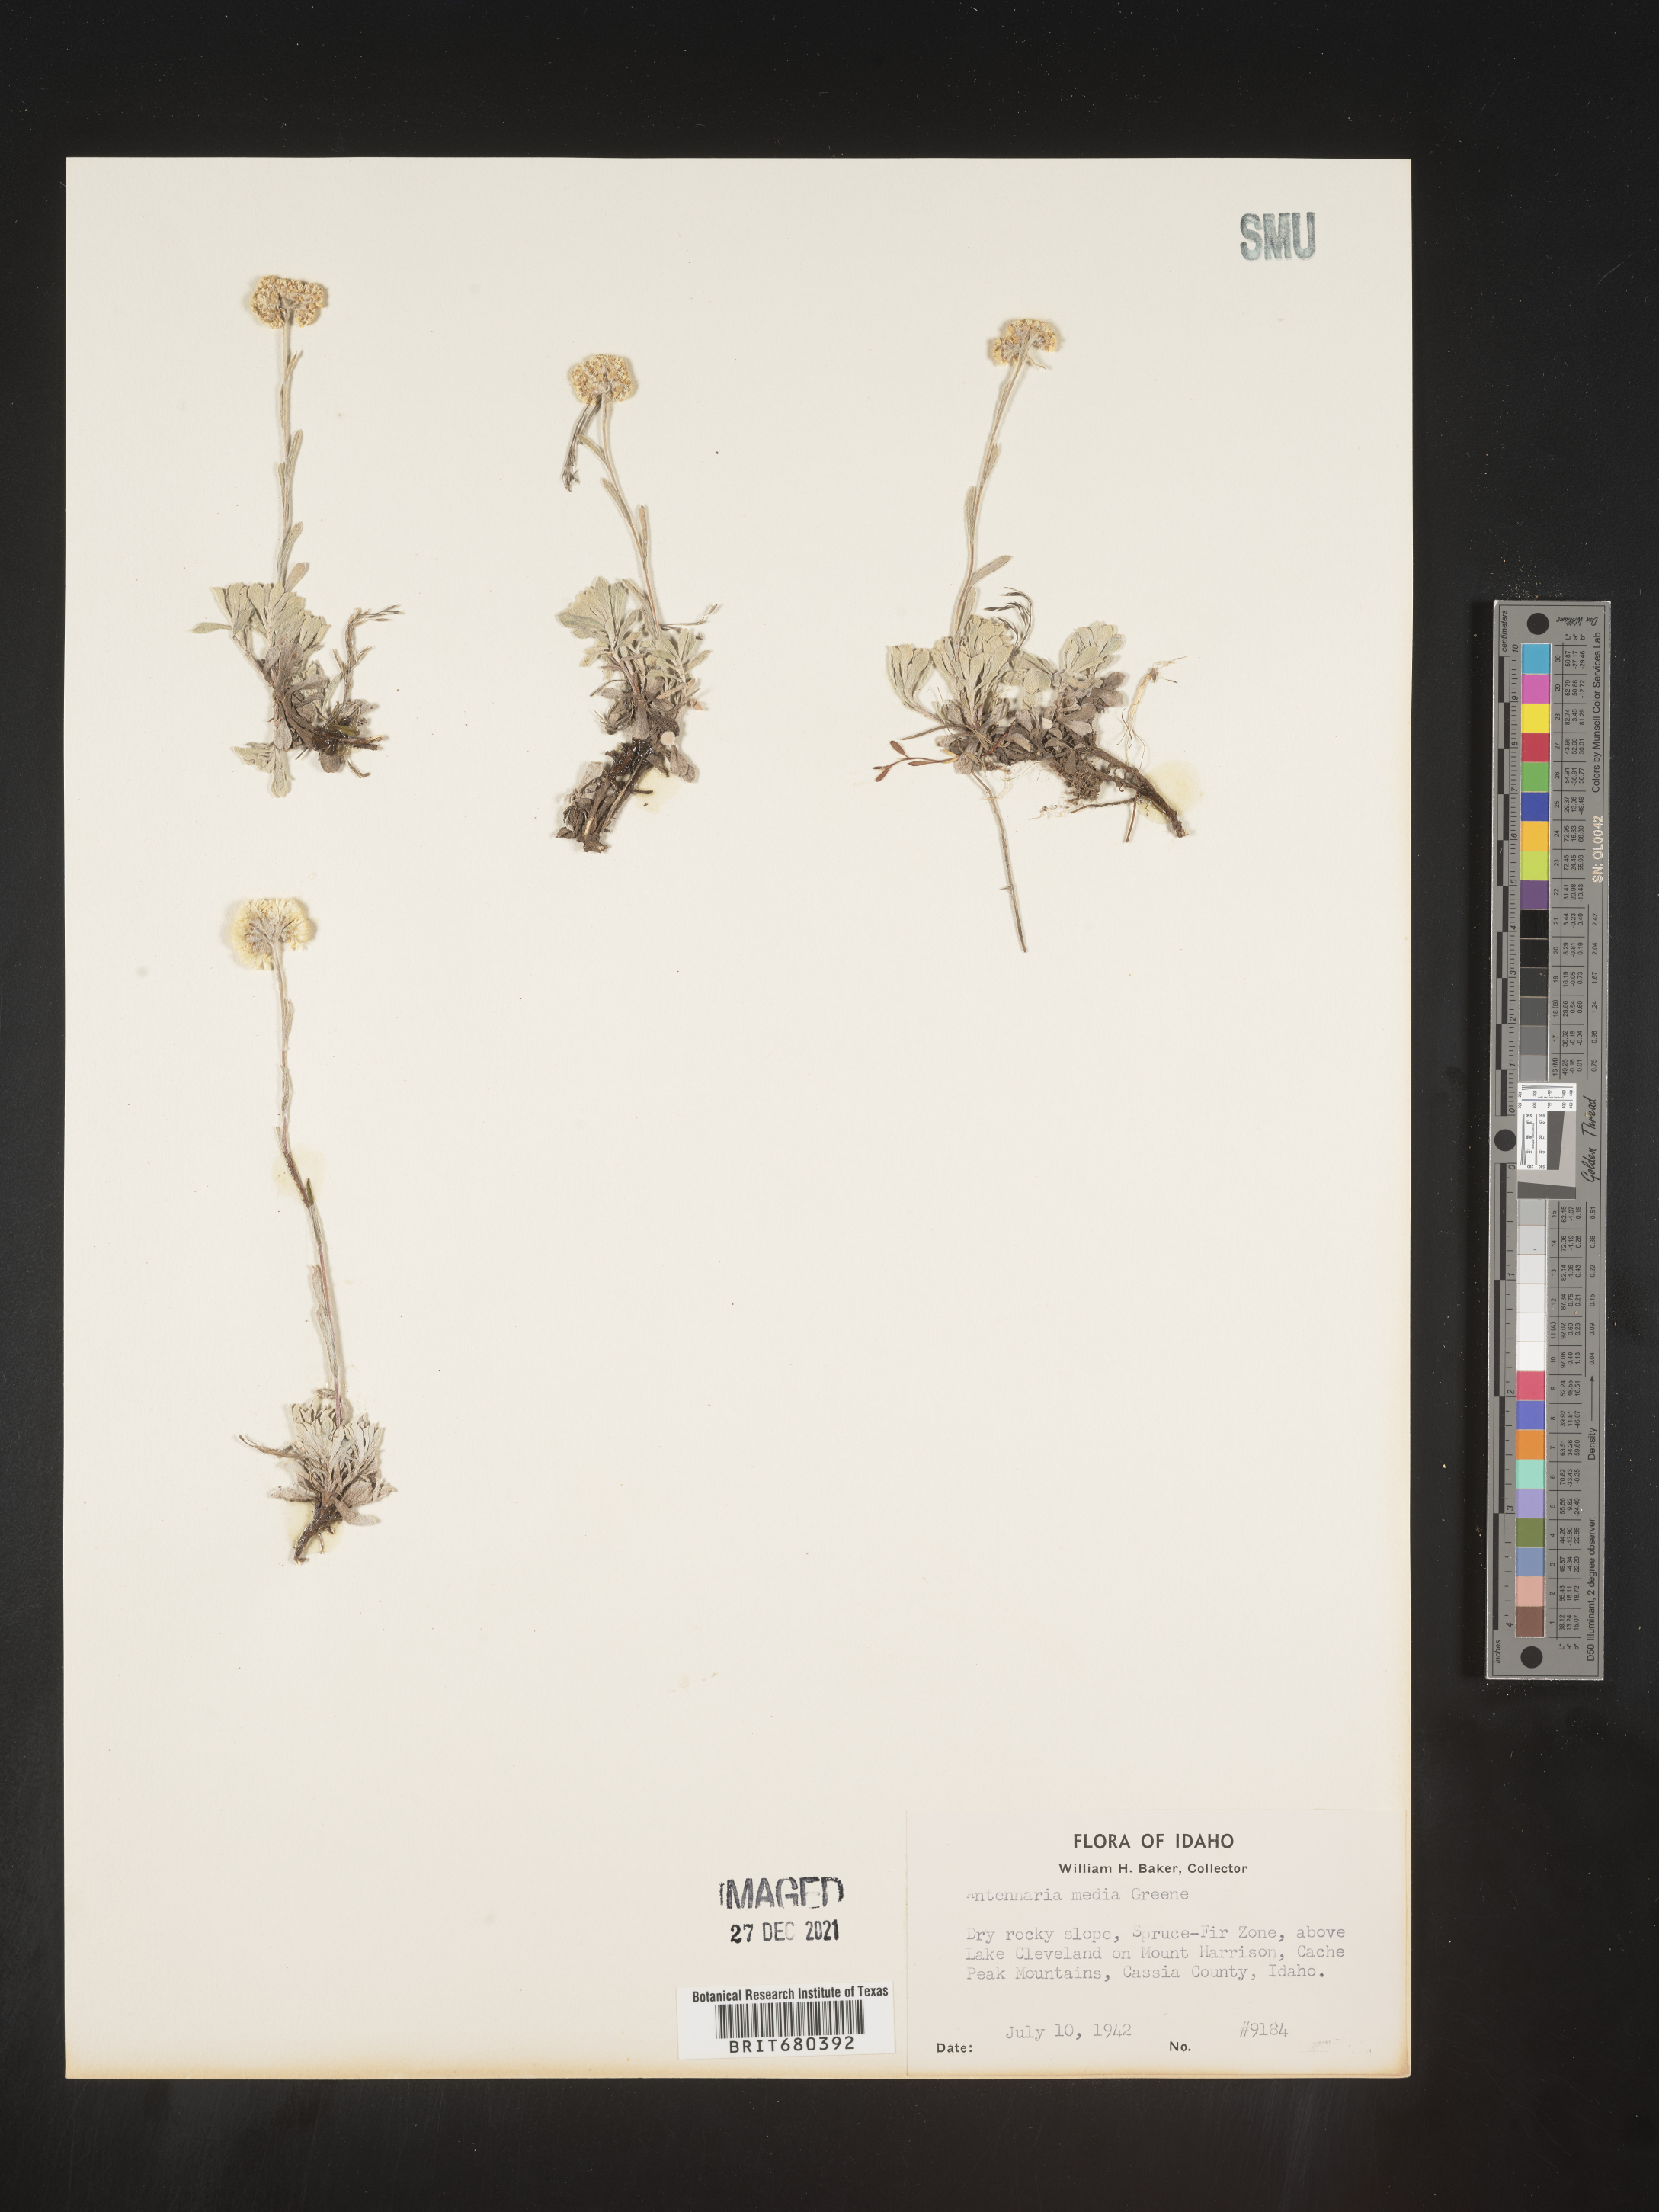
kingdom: Plantae
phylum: Tracheophyta
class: Magnoliopsida
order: Asterales
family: Asteraceae
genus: Antennaria
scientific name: Antennaria umbrinella
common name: Brown pussytoes
